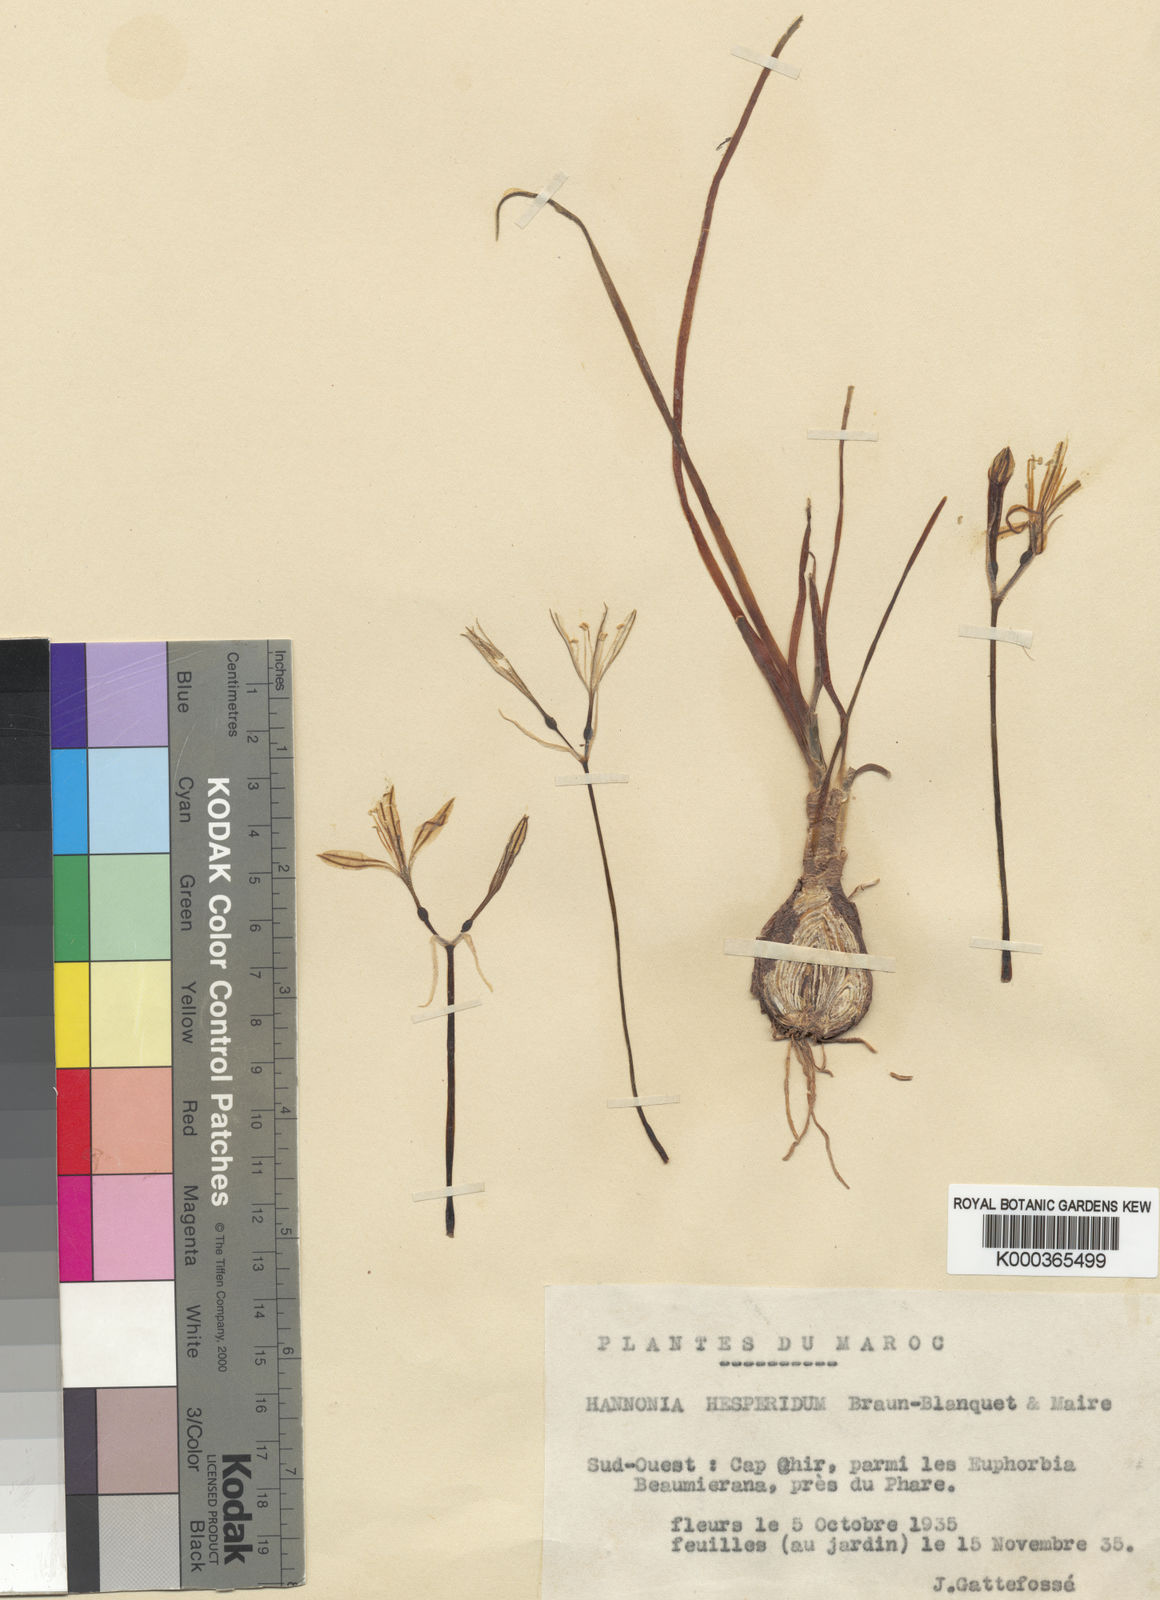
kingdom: Plantae
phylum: Tracheophyta
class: Liliopsida
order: Asparagales
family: Amaryllidaceae
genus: Hannonia
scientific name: Hannonia hesperidum
